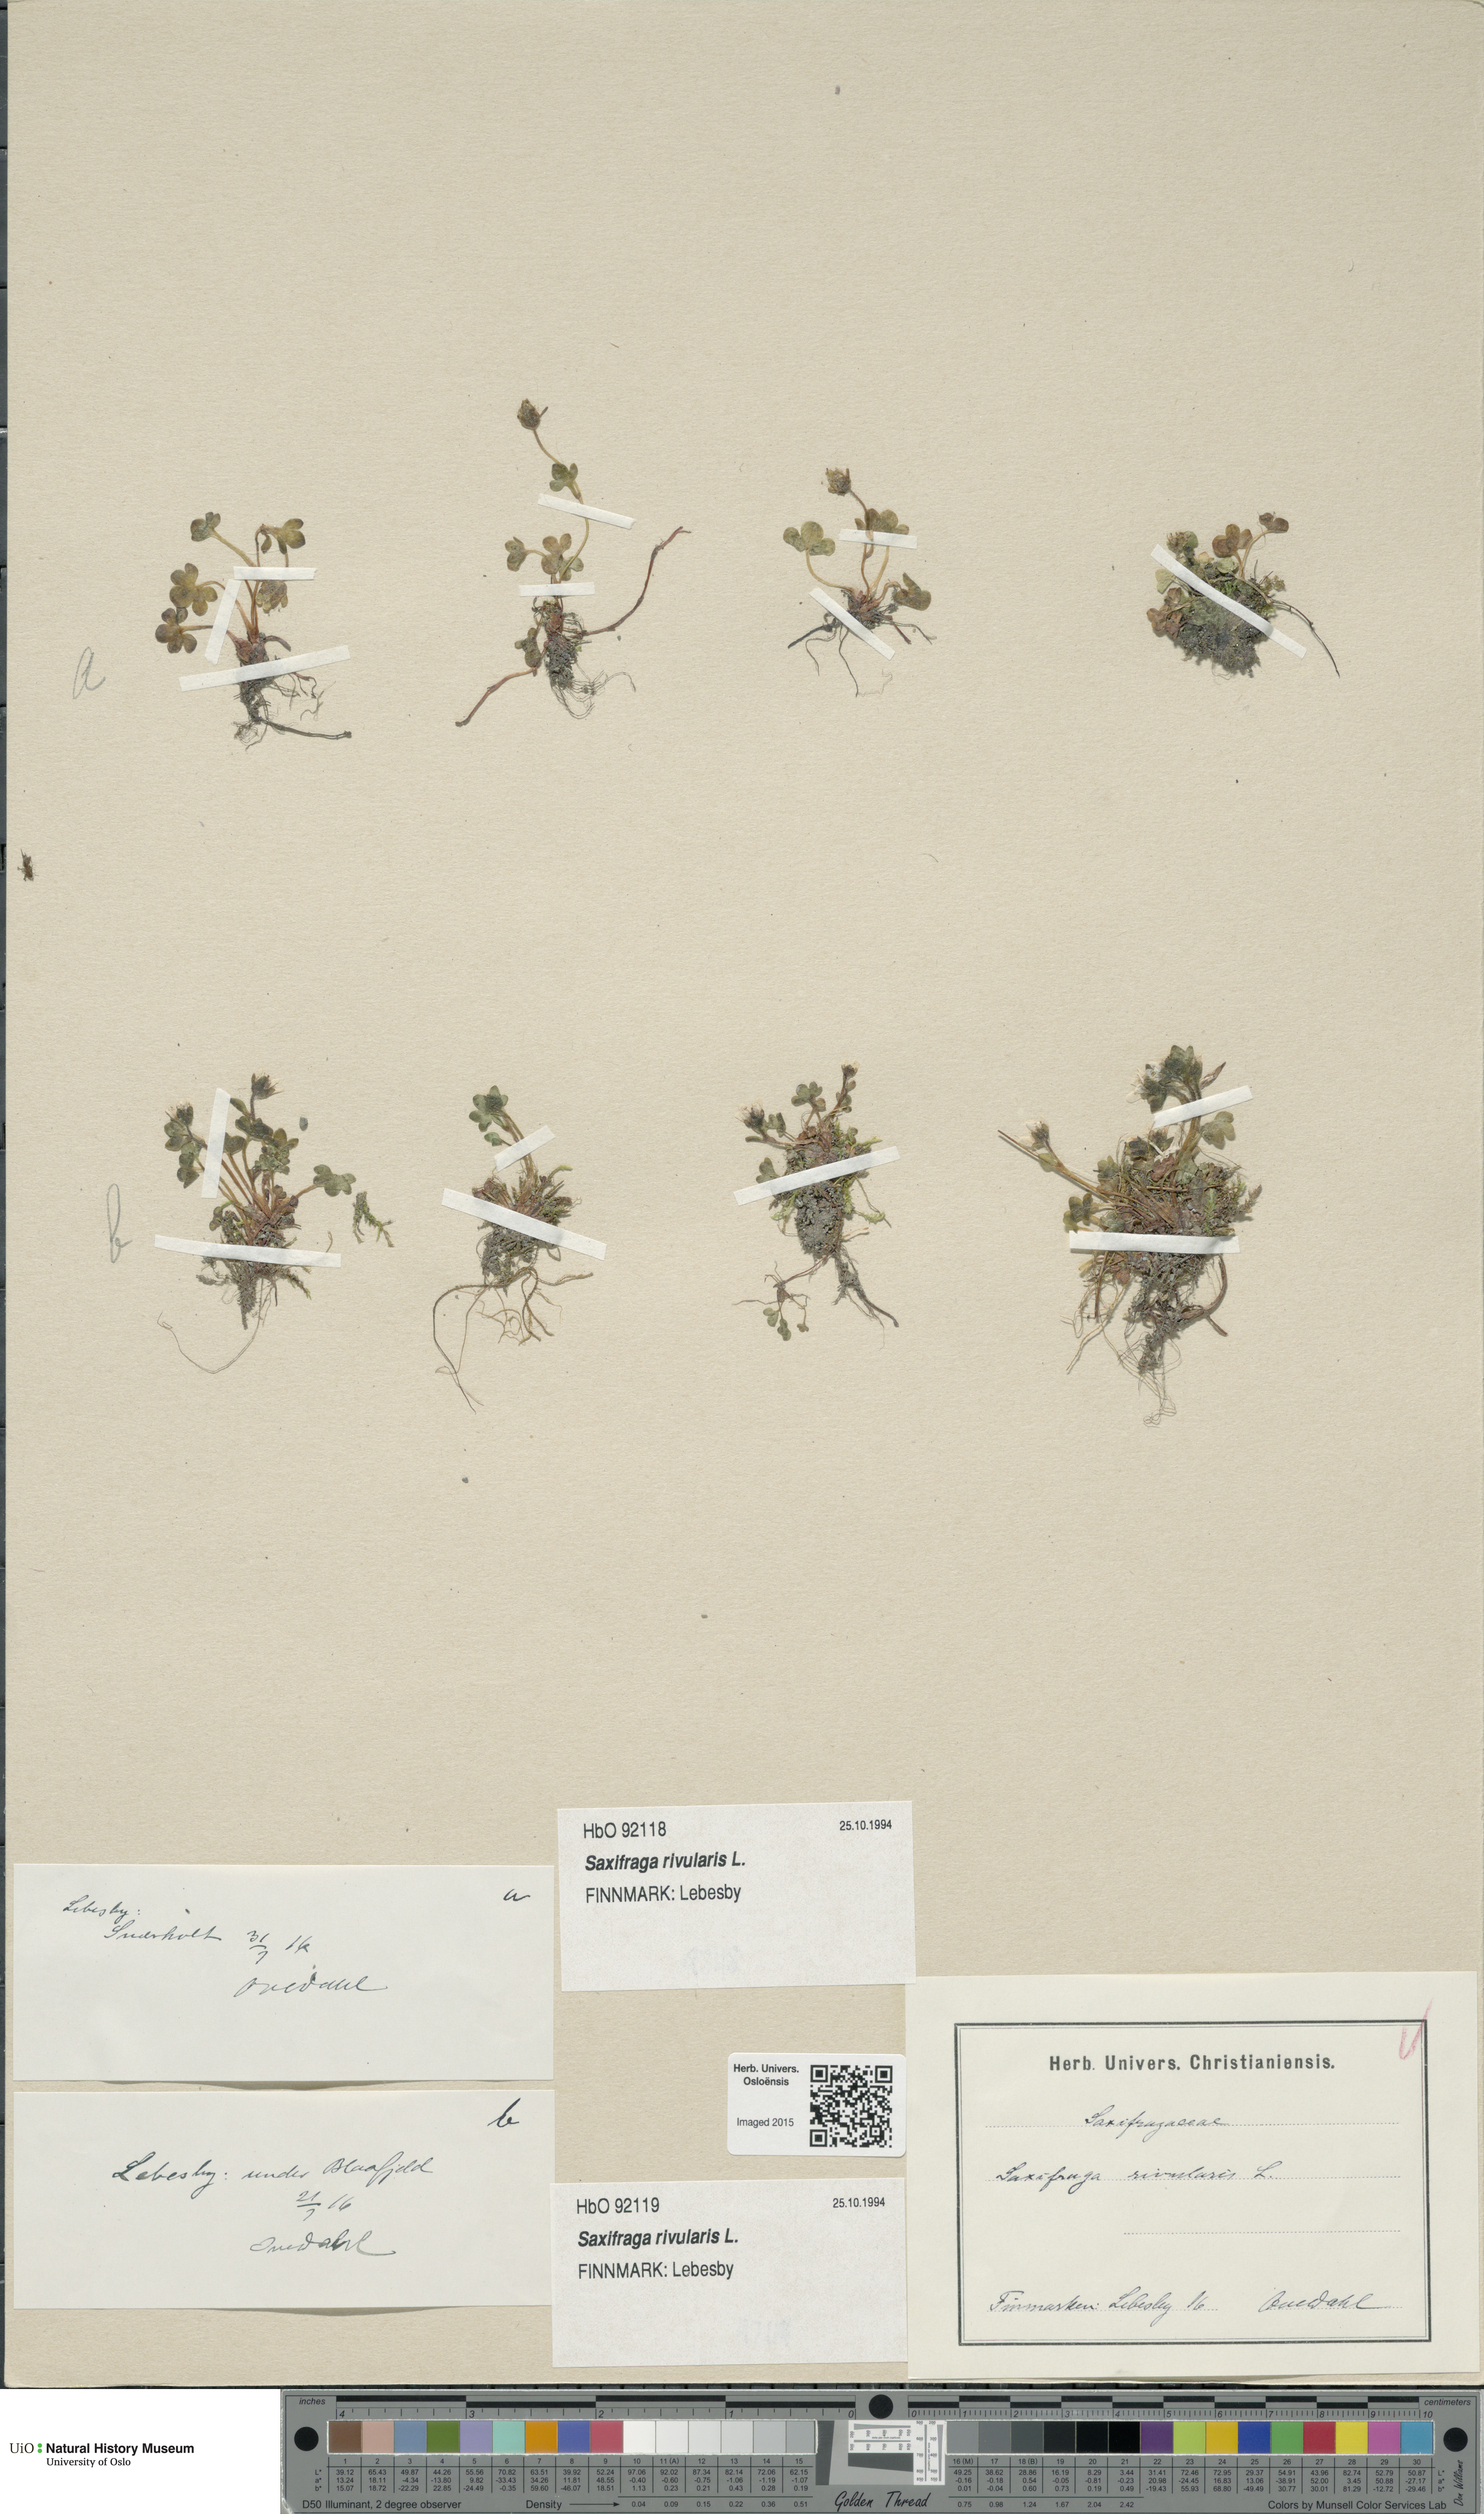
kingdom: Plantae
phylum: Tracheophyta
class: Magnoliopsida
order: Saxifragales
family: Saxifragaceae
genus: Saxifraga
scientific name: Saxifraga rivularis
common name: Highland saxifrage
